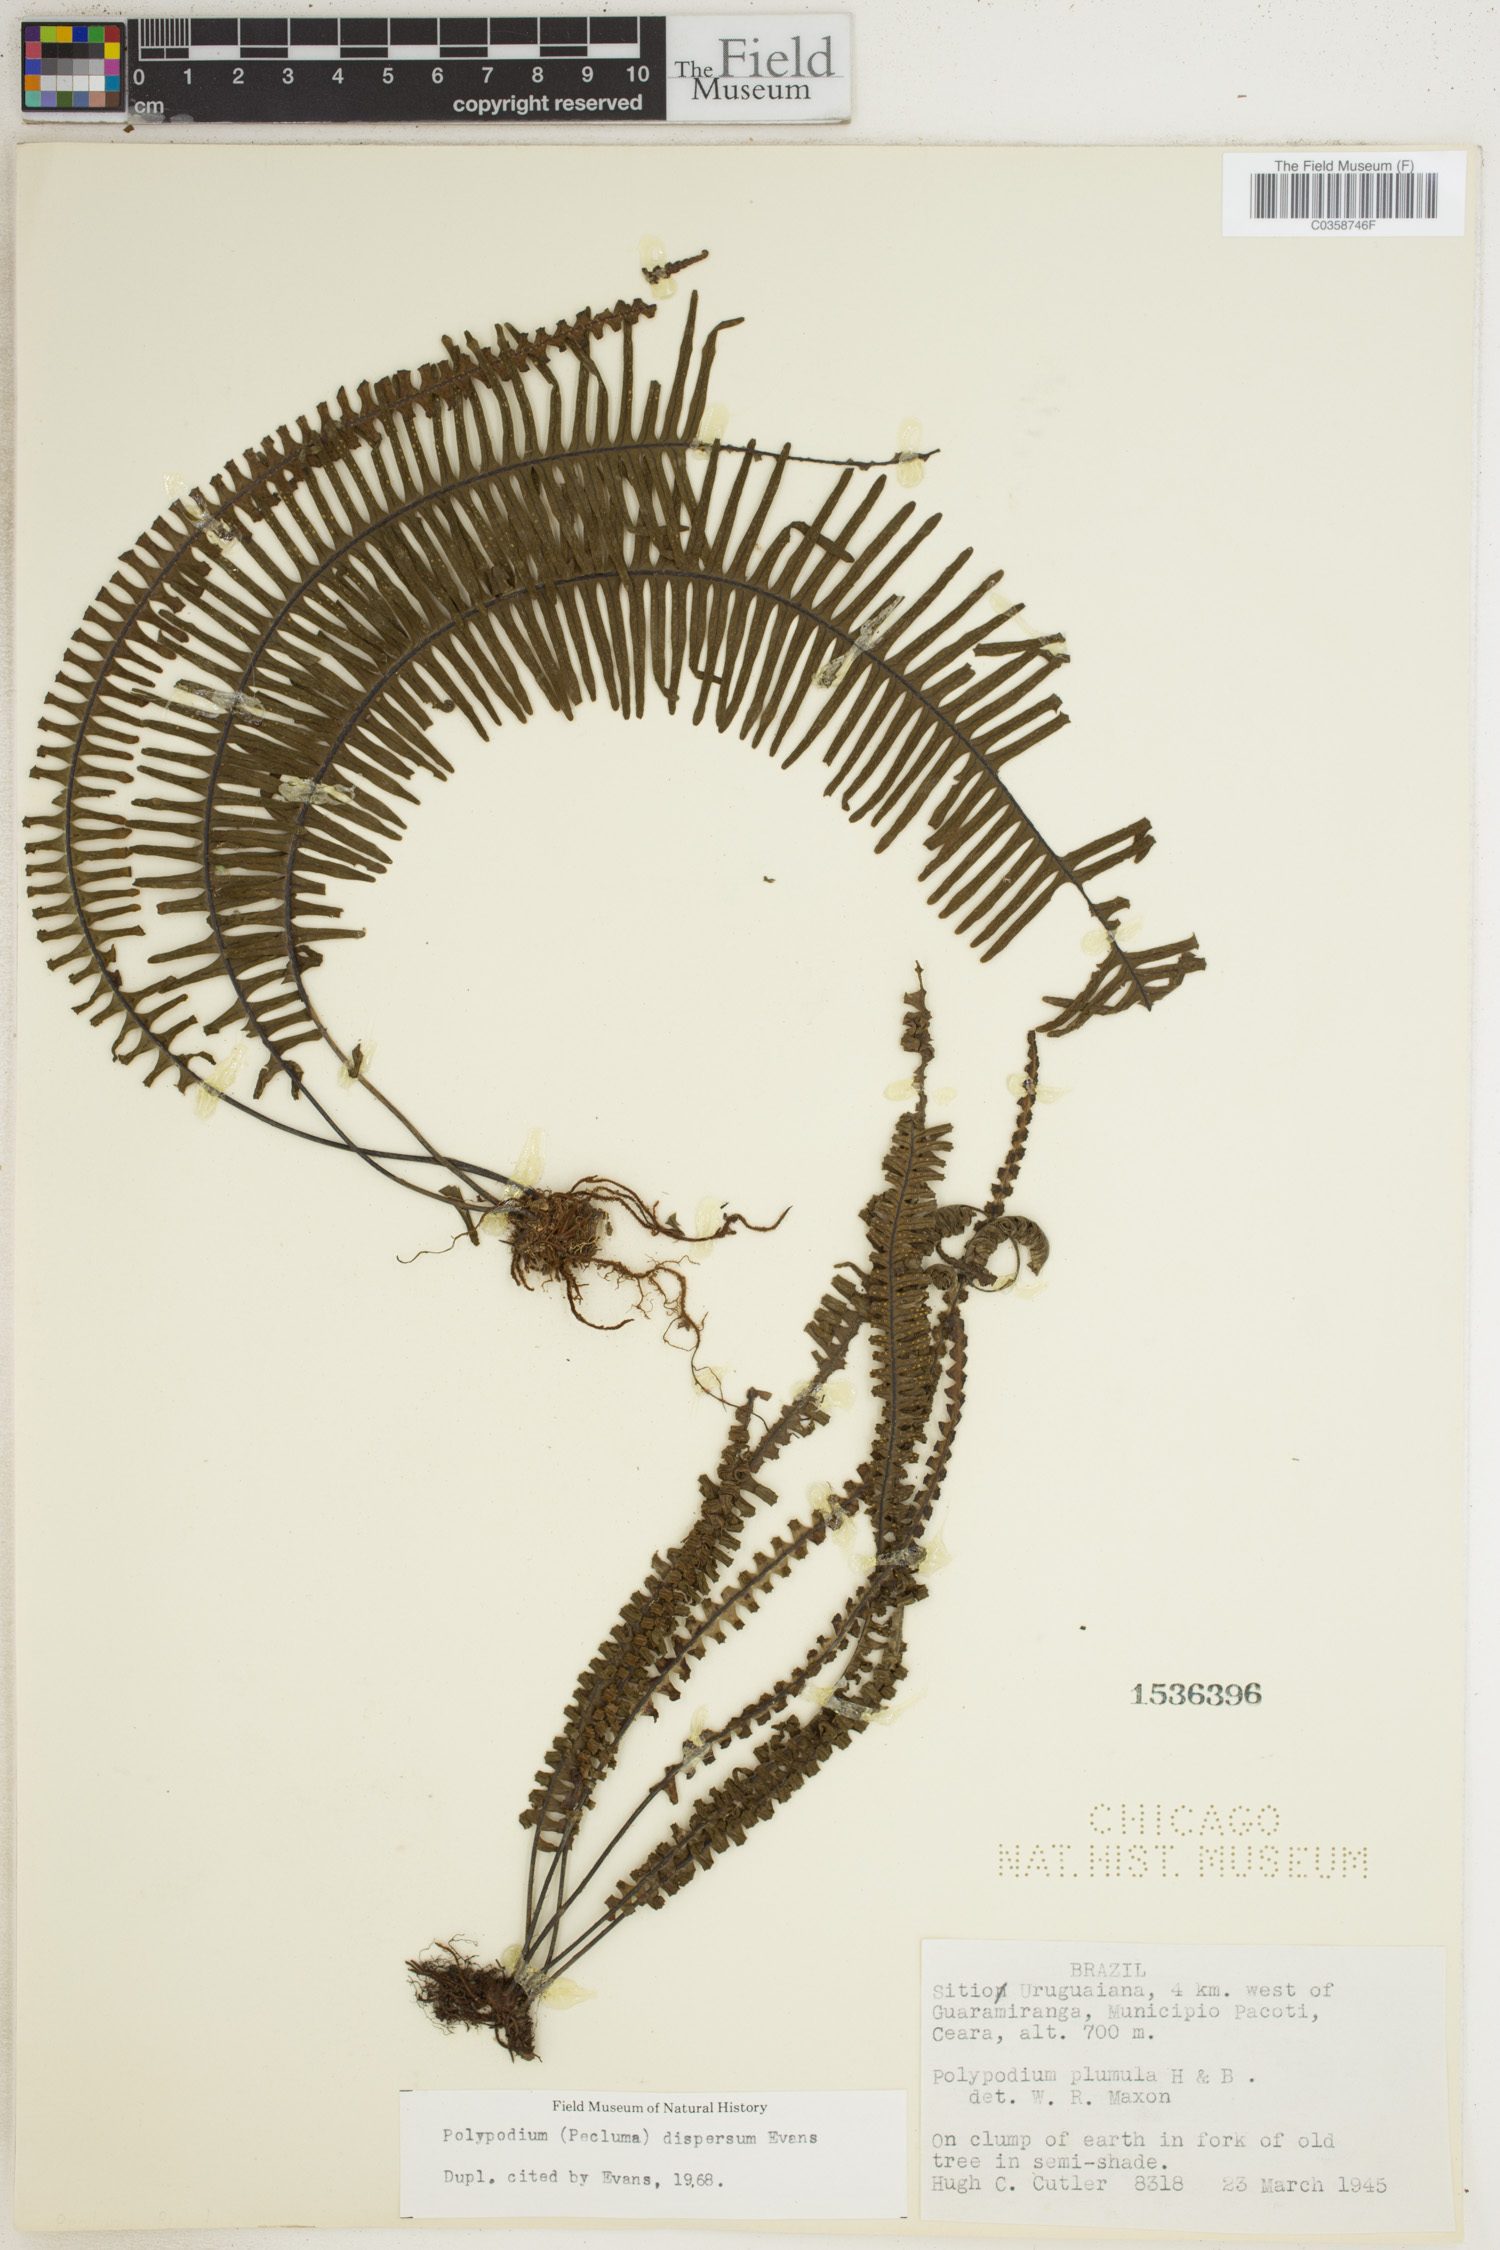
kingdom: Plantae
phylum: Tracheophyta
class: Polypodiopsida
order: Polypodiales
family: Polypodiaceae
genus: Pecluma
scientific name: Pecluma dispersa
